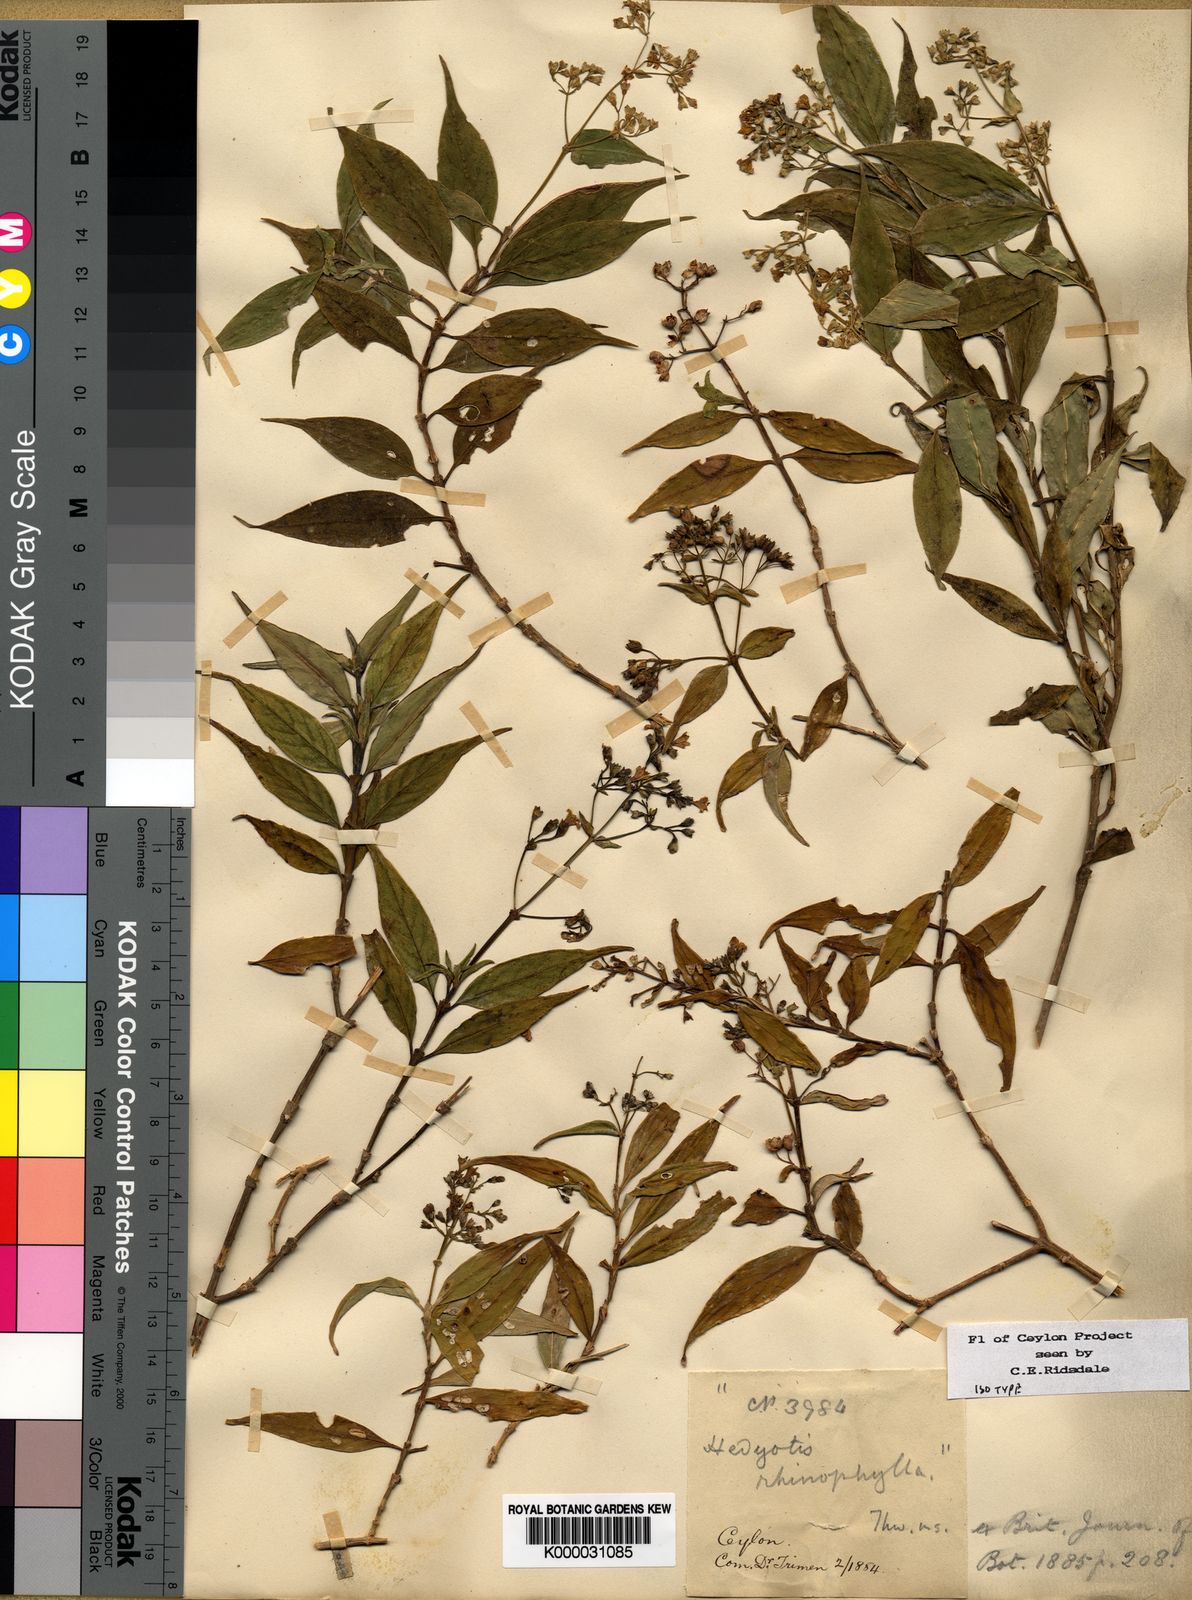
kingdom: Plantae
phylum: Tracheophyta
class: Magnoliopsida
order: Gentianales
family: Rubiaceae
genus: Hedyotis
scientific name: Hedyotis rhinophylla
